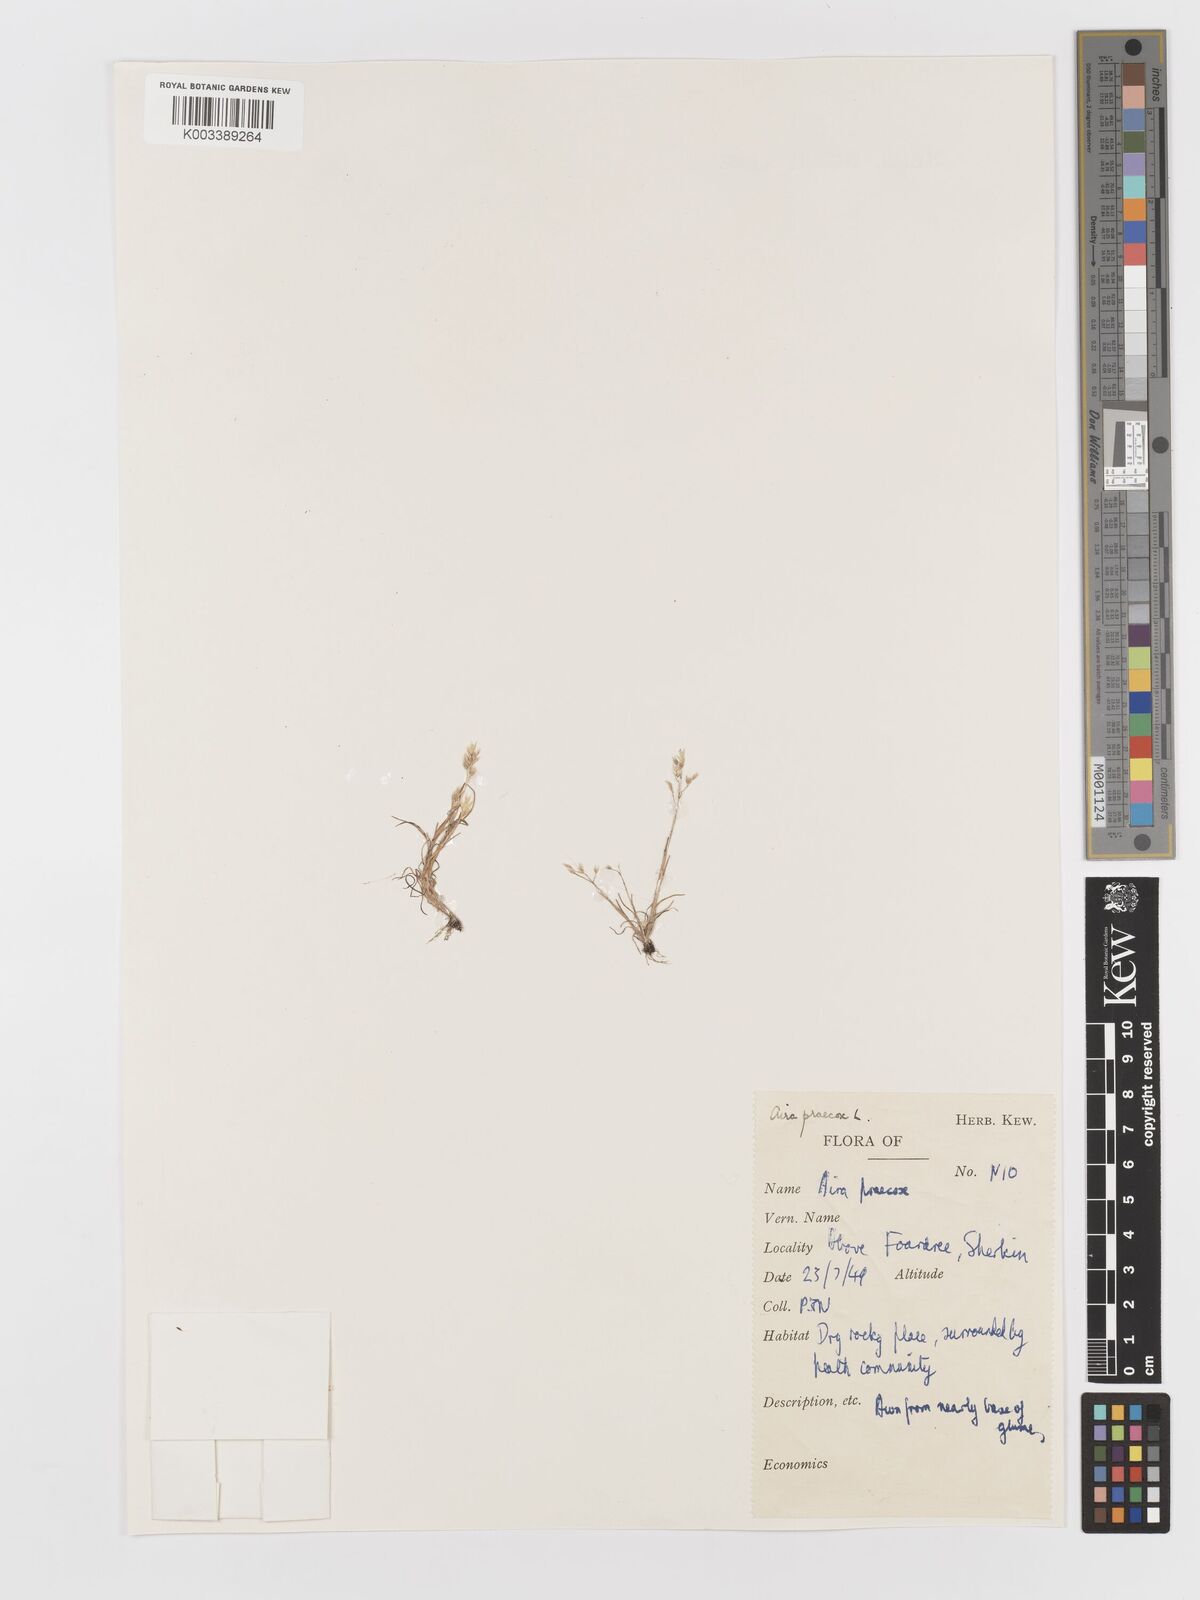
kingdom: Plantae
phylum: Tracheophyta
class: Liliopsida
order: Poales
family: Poaceae
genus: Aira
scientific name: Aira praecox
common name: Early hair-grass
